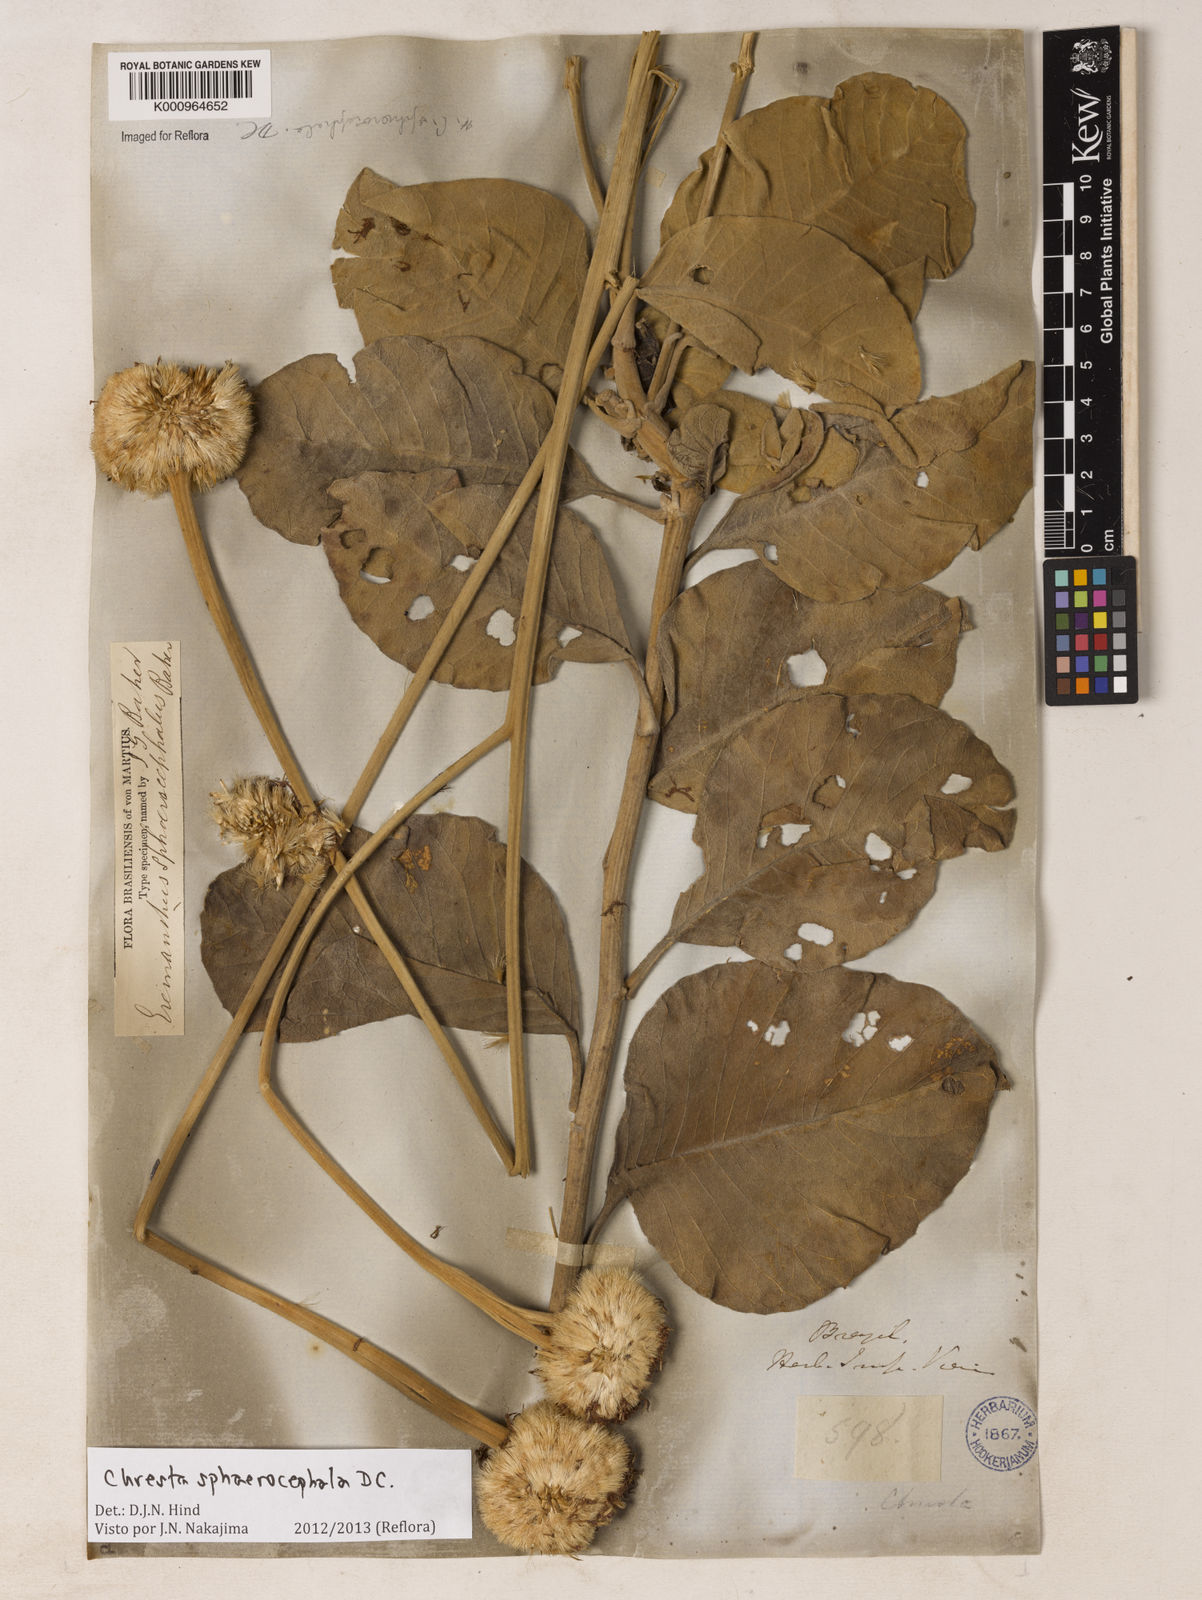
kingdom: Plantae
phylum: Tracheophyta
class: Magnoliopsida
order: Asterales
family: Asteraceae
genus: Chresta
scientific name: Chresta sphaerocephala
